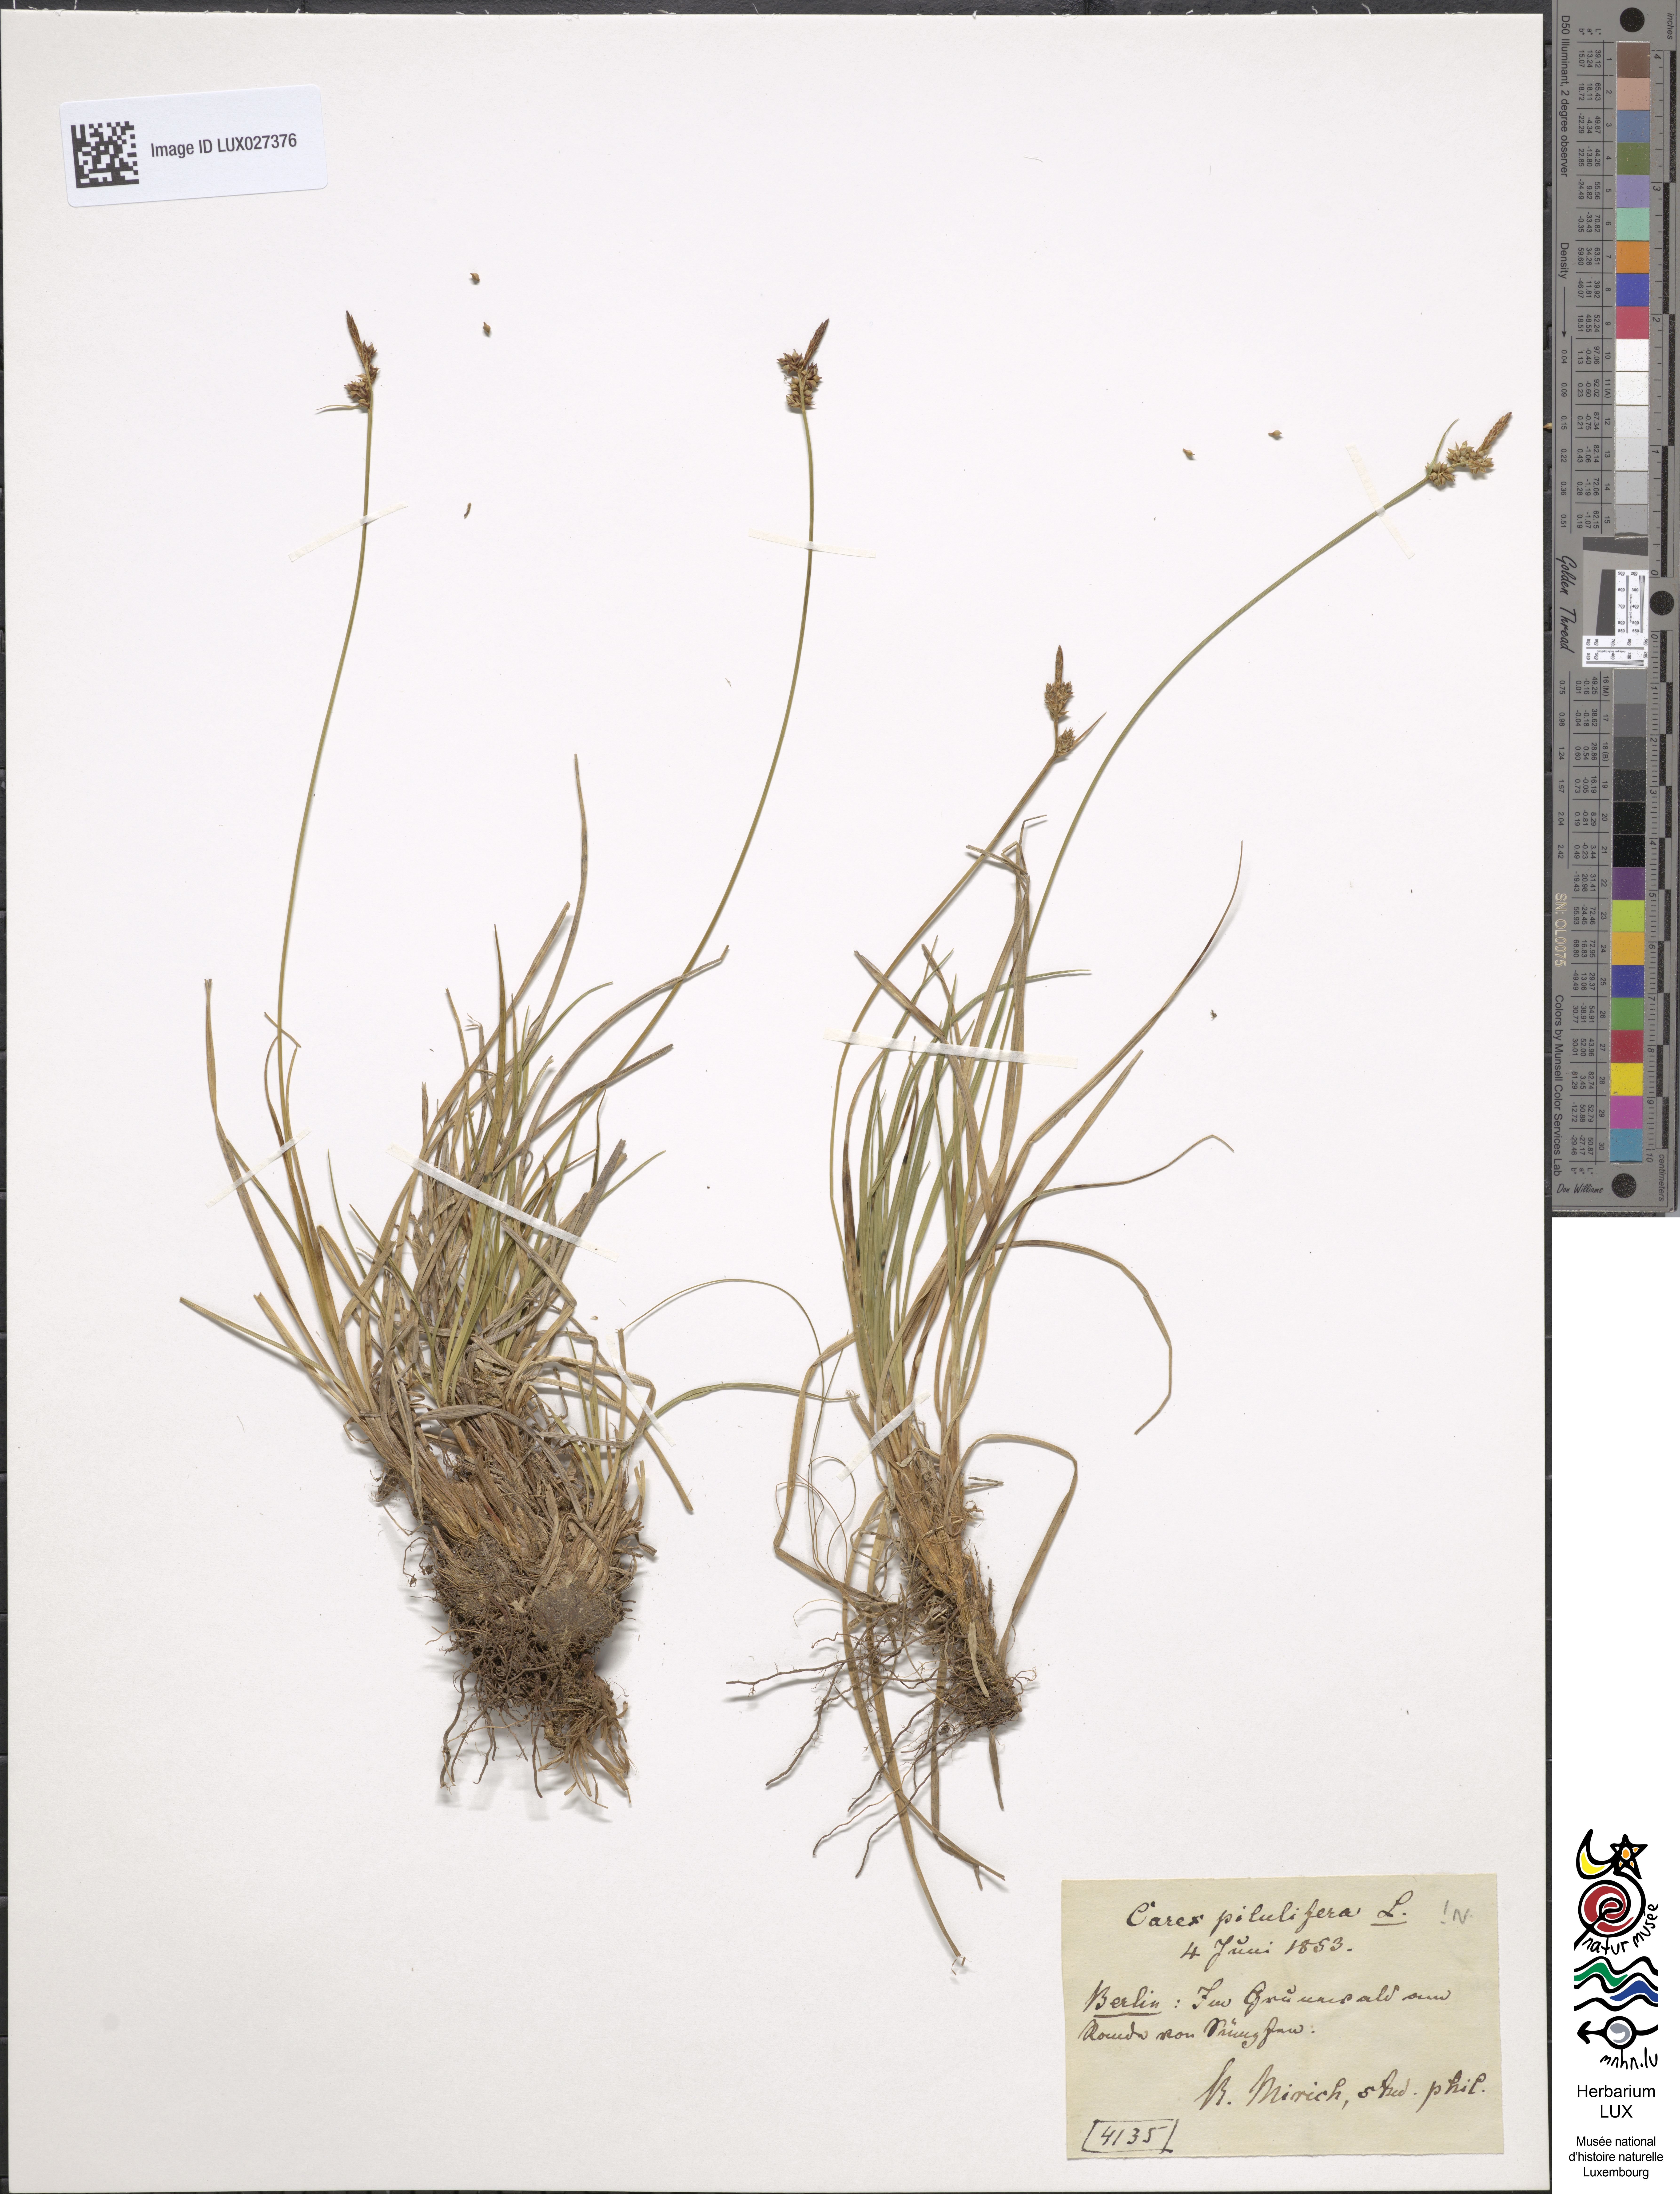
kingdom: Plantae
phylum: Tracheophyta
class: Liliopsida
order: Poales
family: Cyperaceae
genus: Carex
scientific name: Carex pilulifera
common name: Pill sedge
